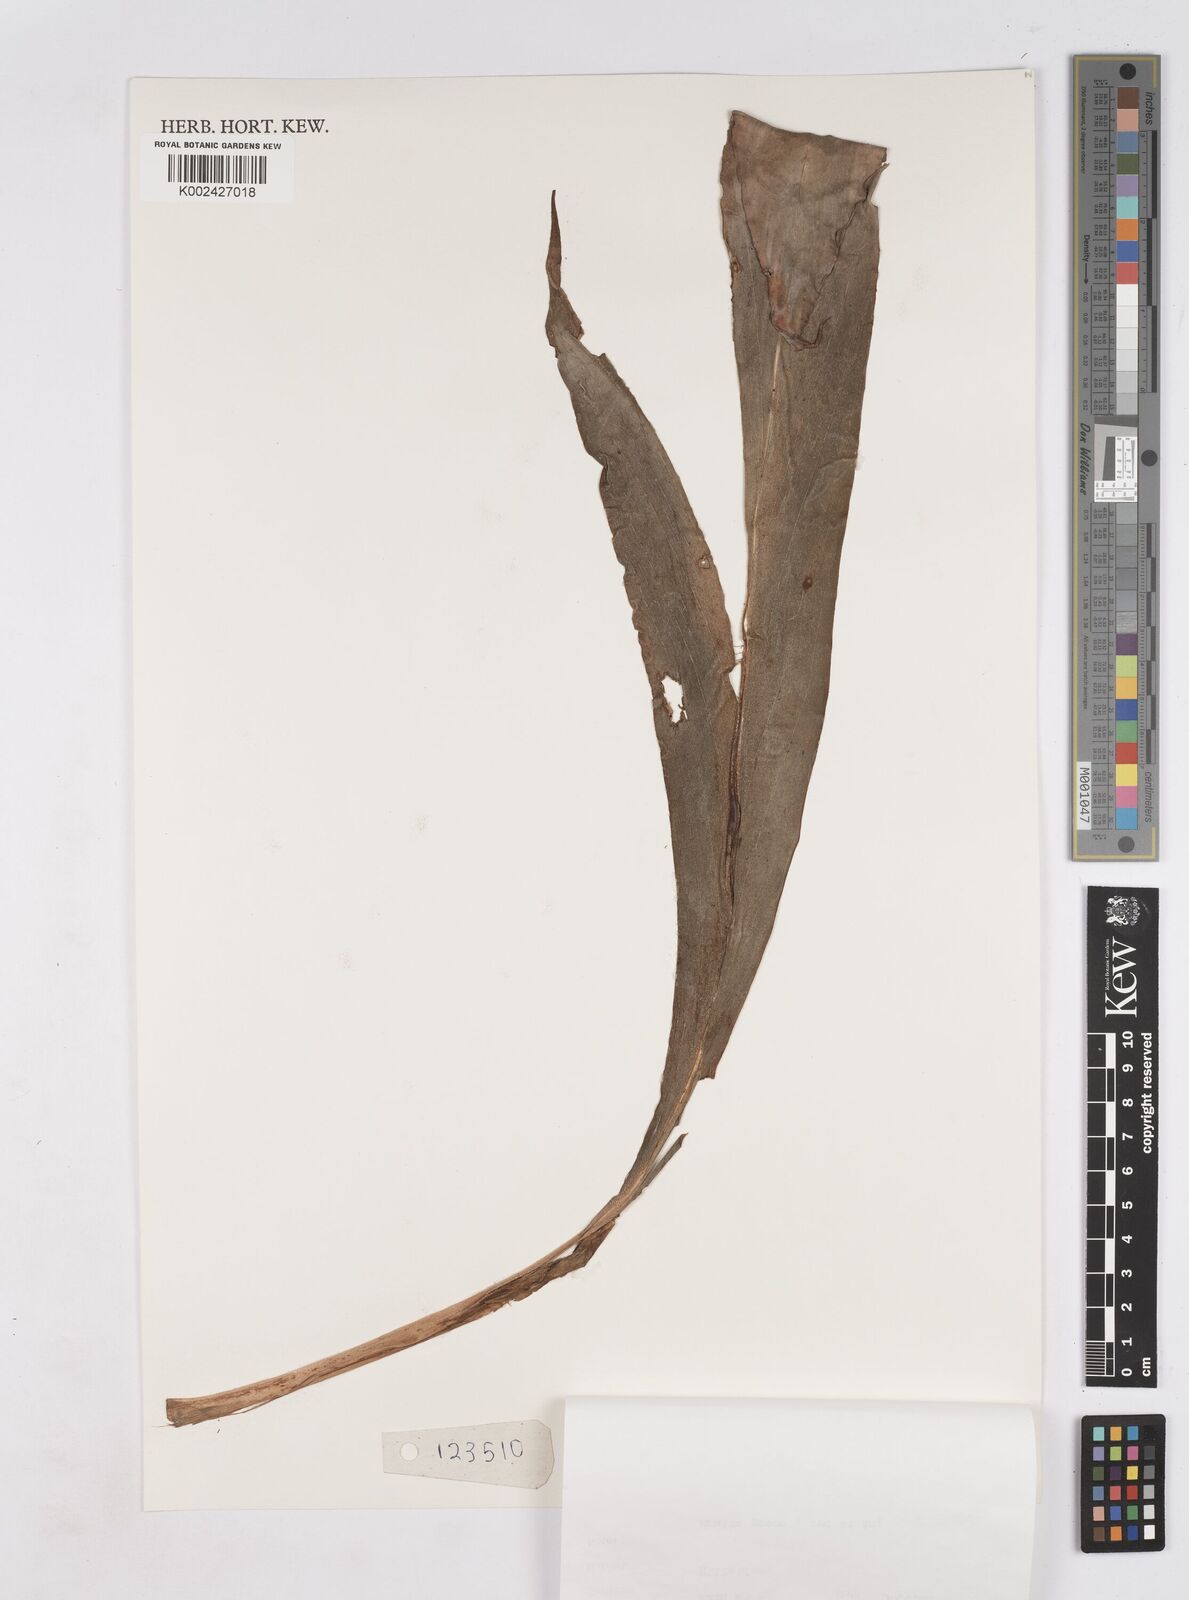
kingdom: Plantae
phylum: Tracheophyta
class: Liliopsida
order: Zingiberales
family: Zingiberaceae
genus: Hedychium
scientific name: Hedychium cylindricum
